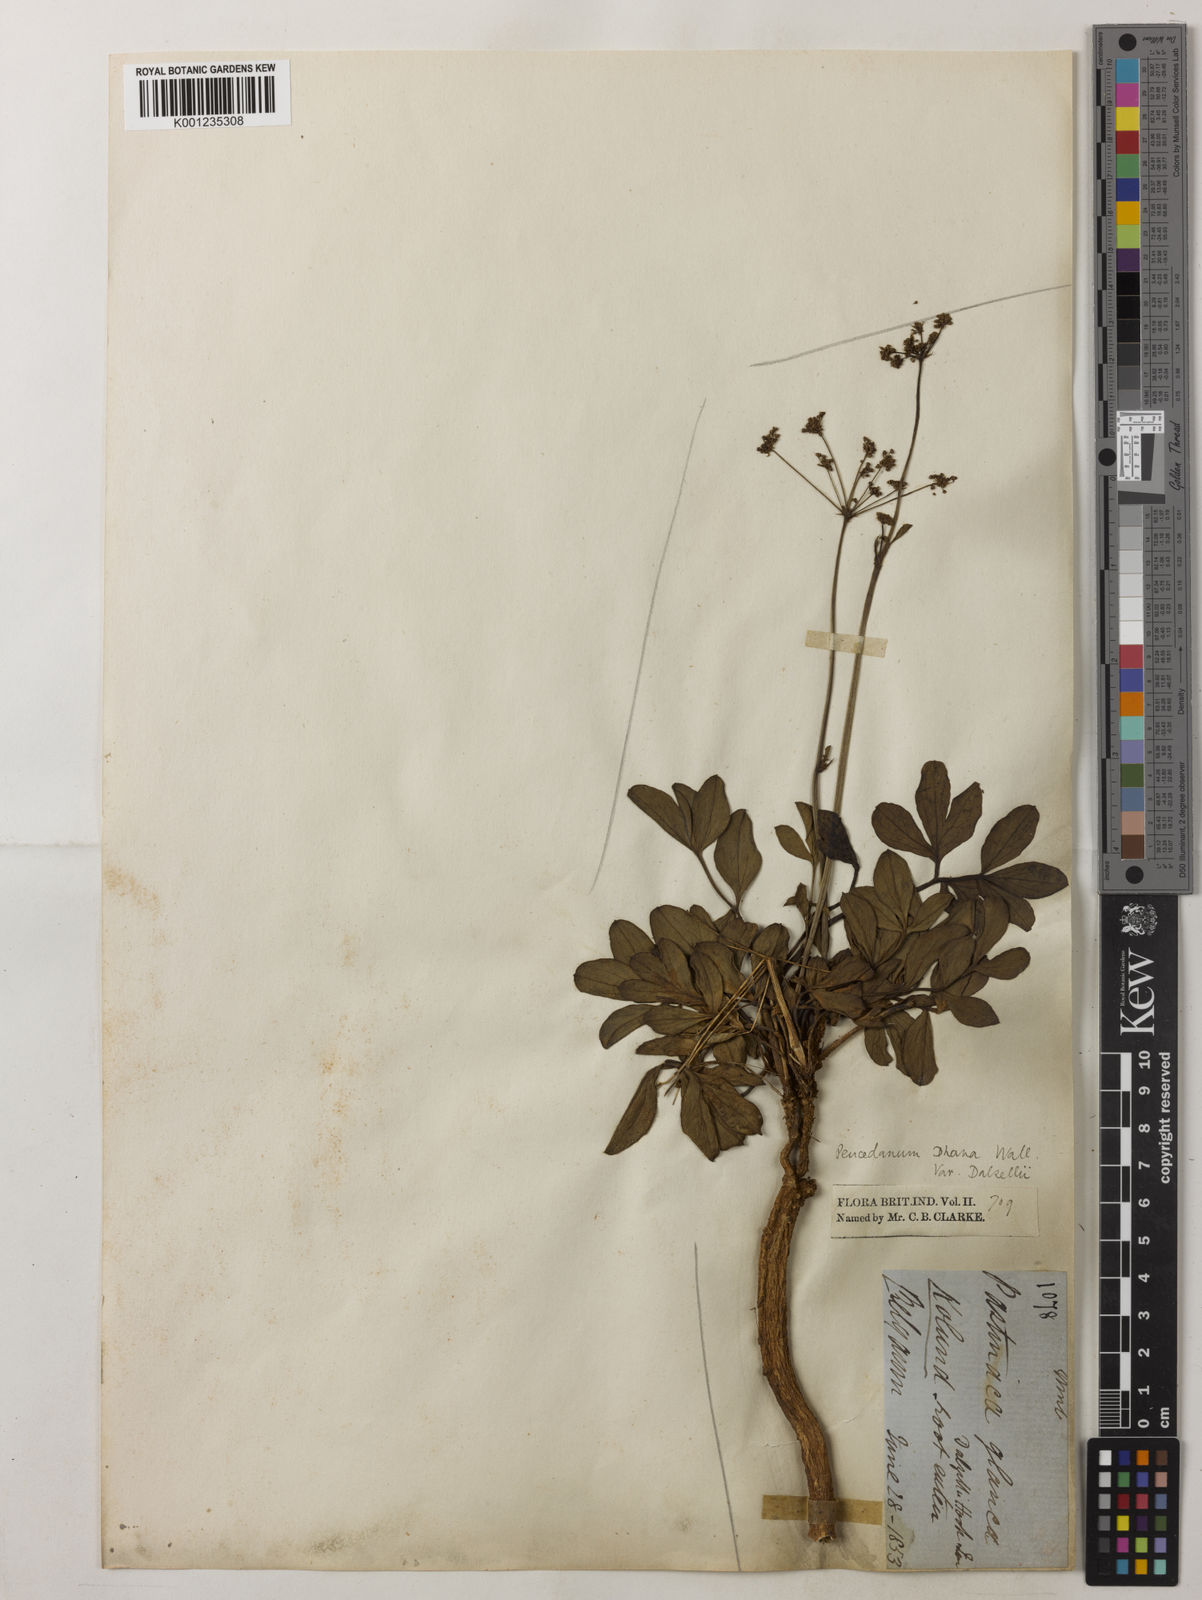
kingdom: Plantae
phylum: Tracheophyta
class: Magnoliopsida
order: Apiales
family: Apiaceae
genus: Peucedanum
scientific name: Peucedanum dhana
